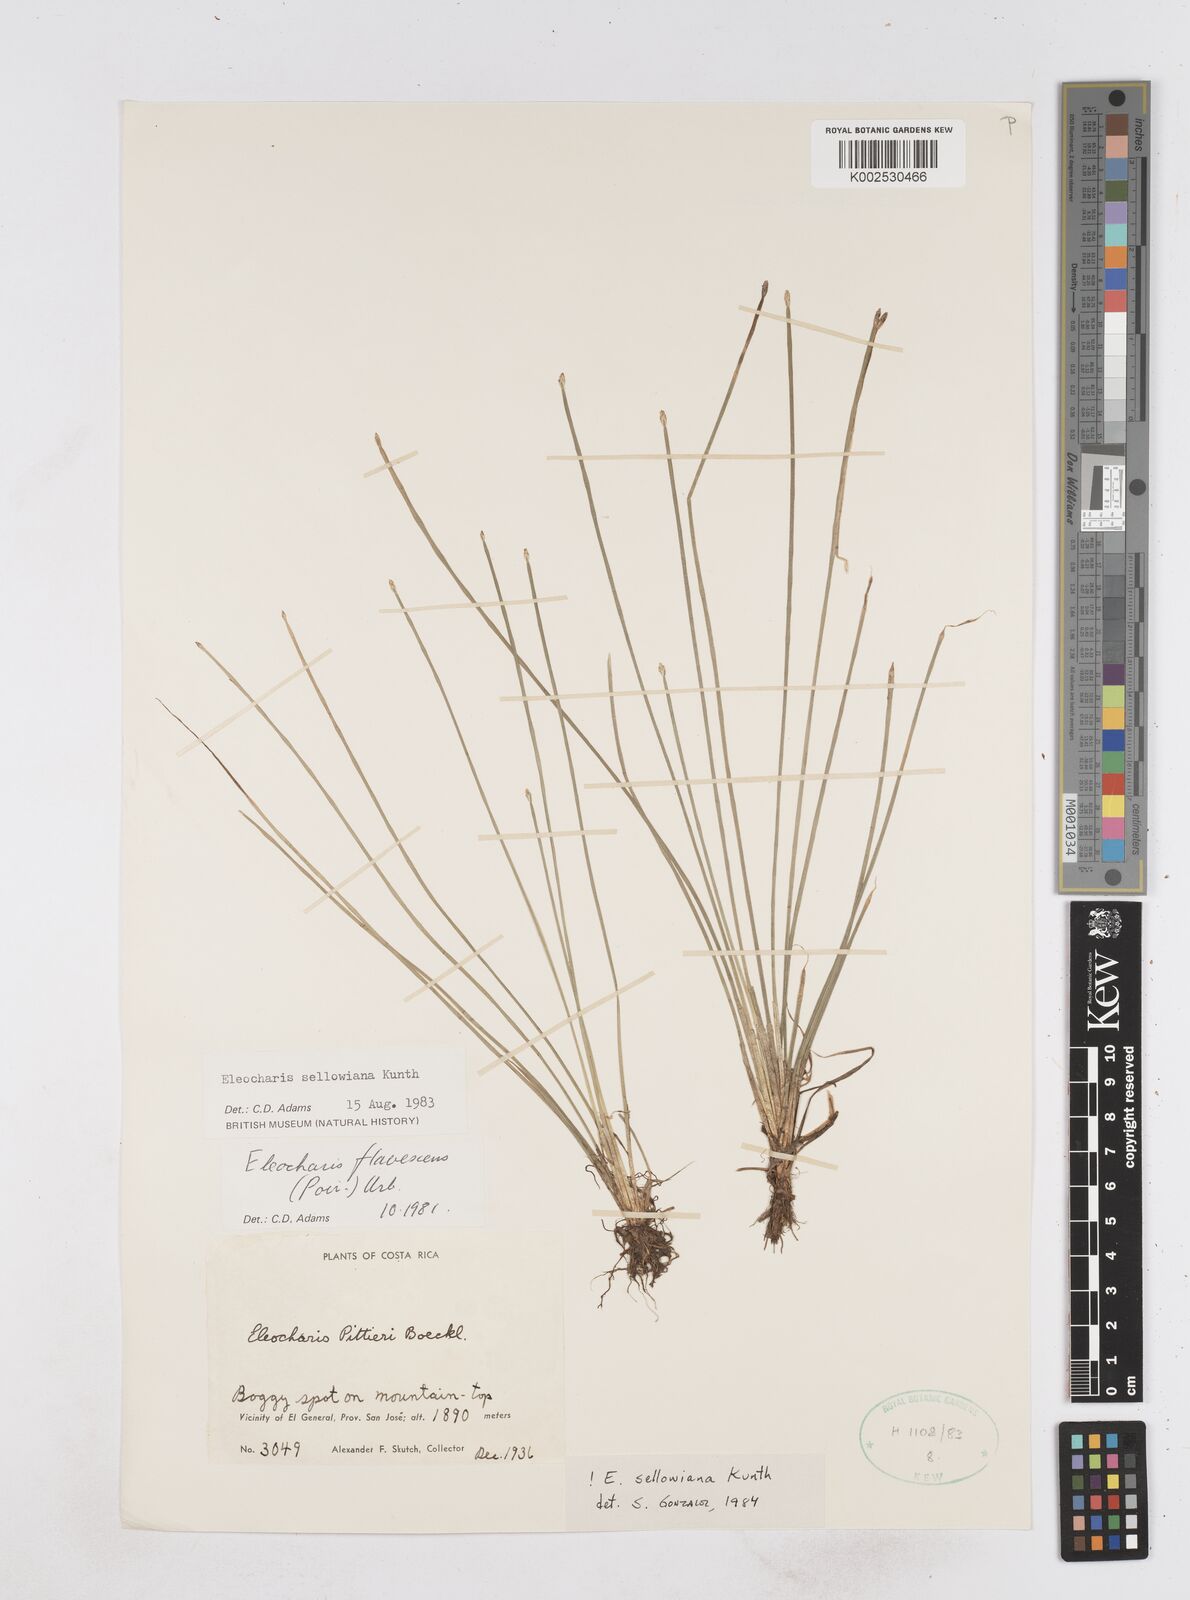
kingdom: Plantae
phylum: Tracheophyta
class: Liliopsida
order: Poales
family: Cyperaceae
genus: Eleocharis
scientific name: Eleocharis sellowiana
